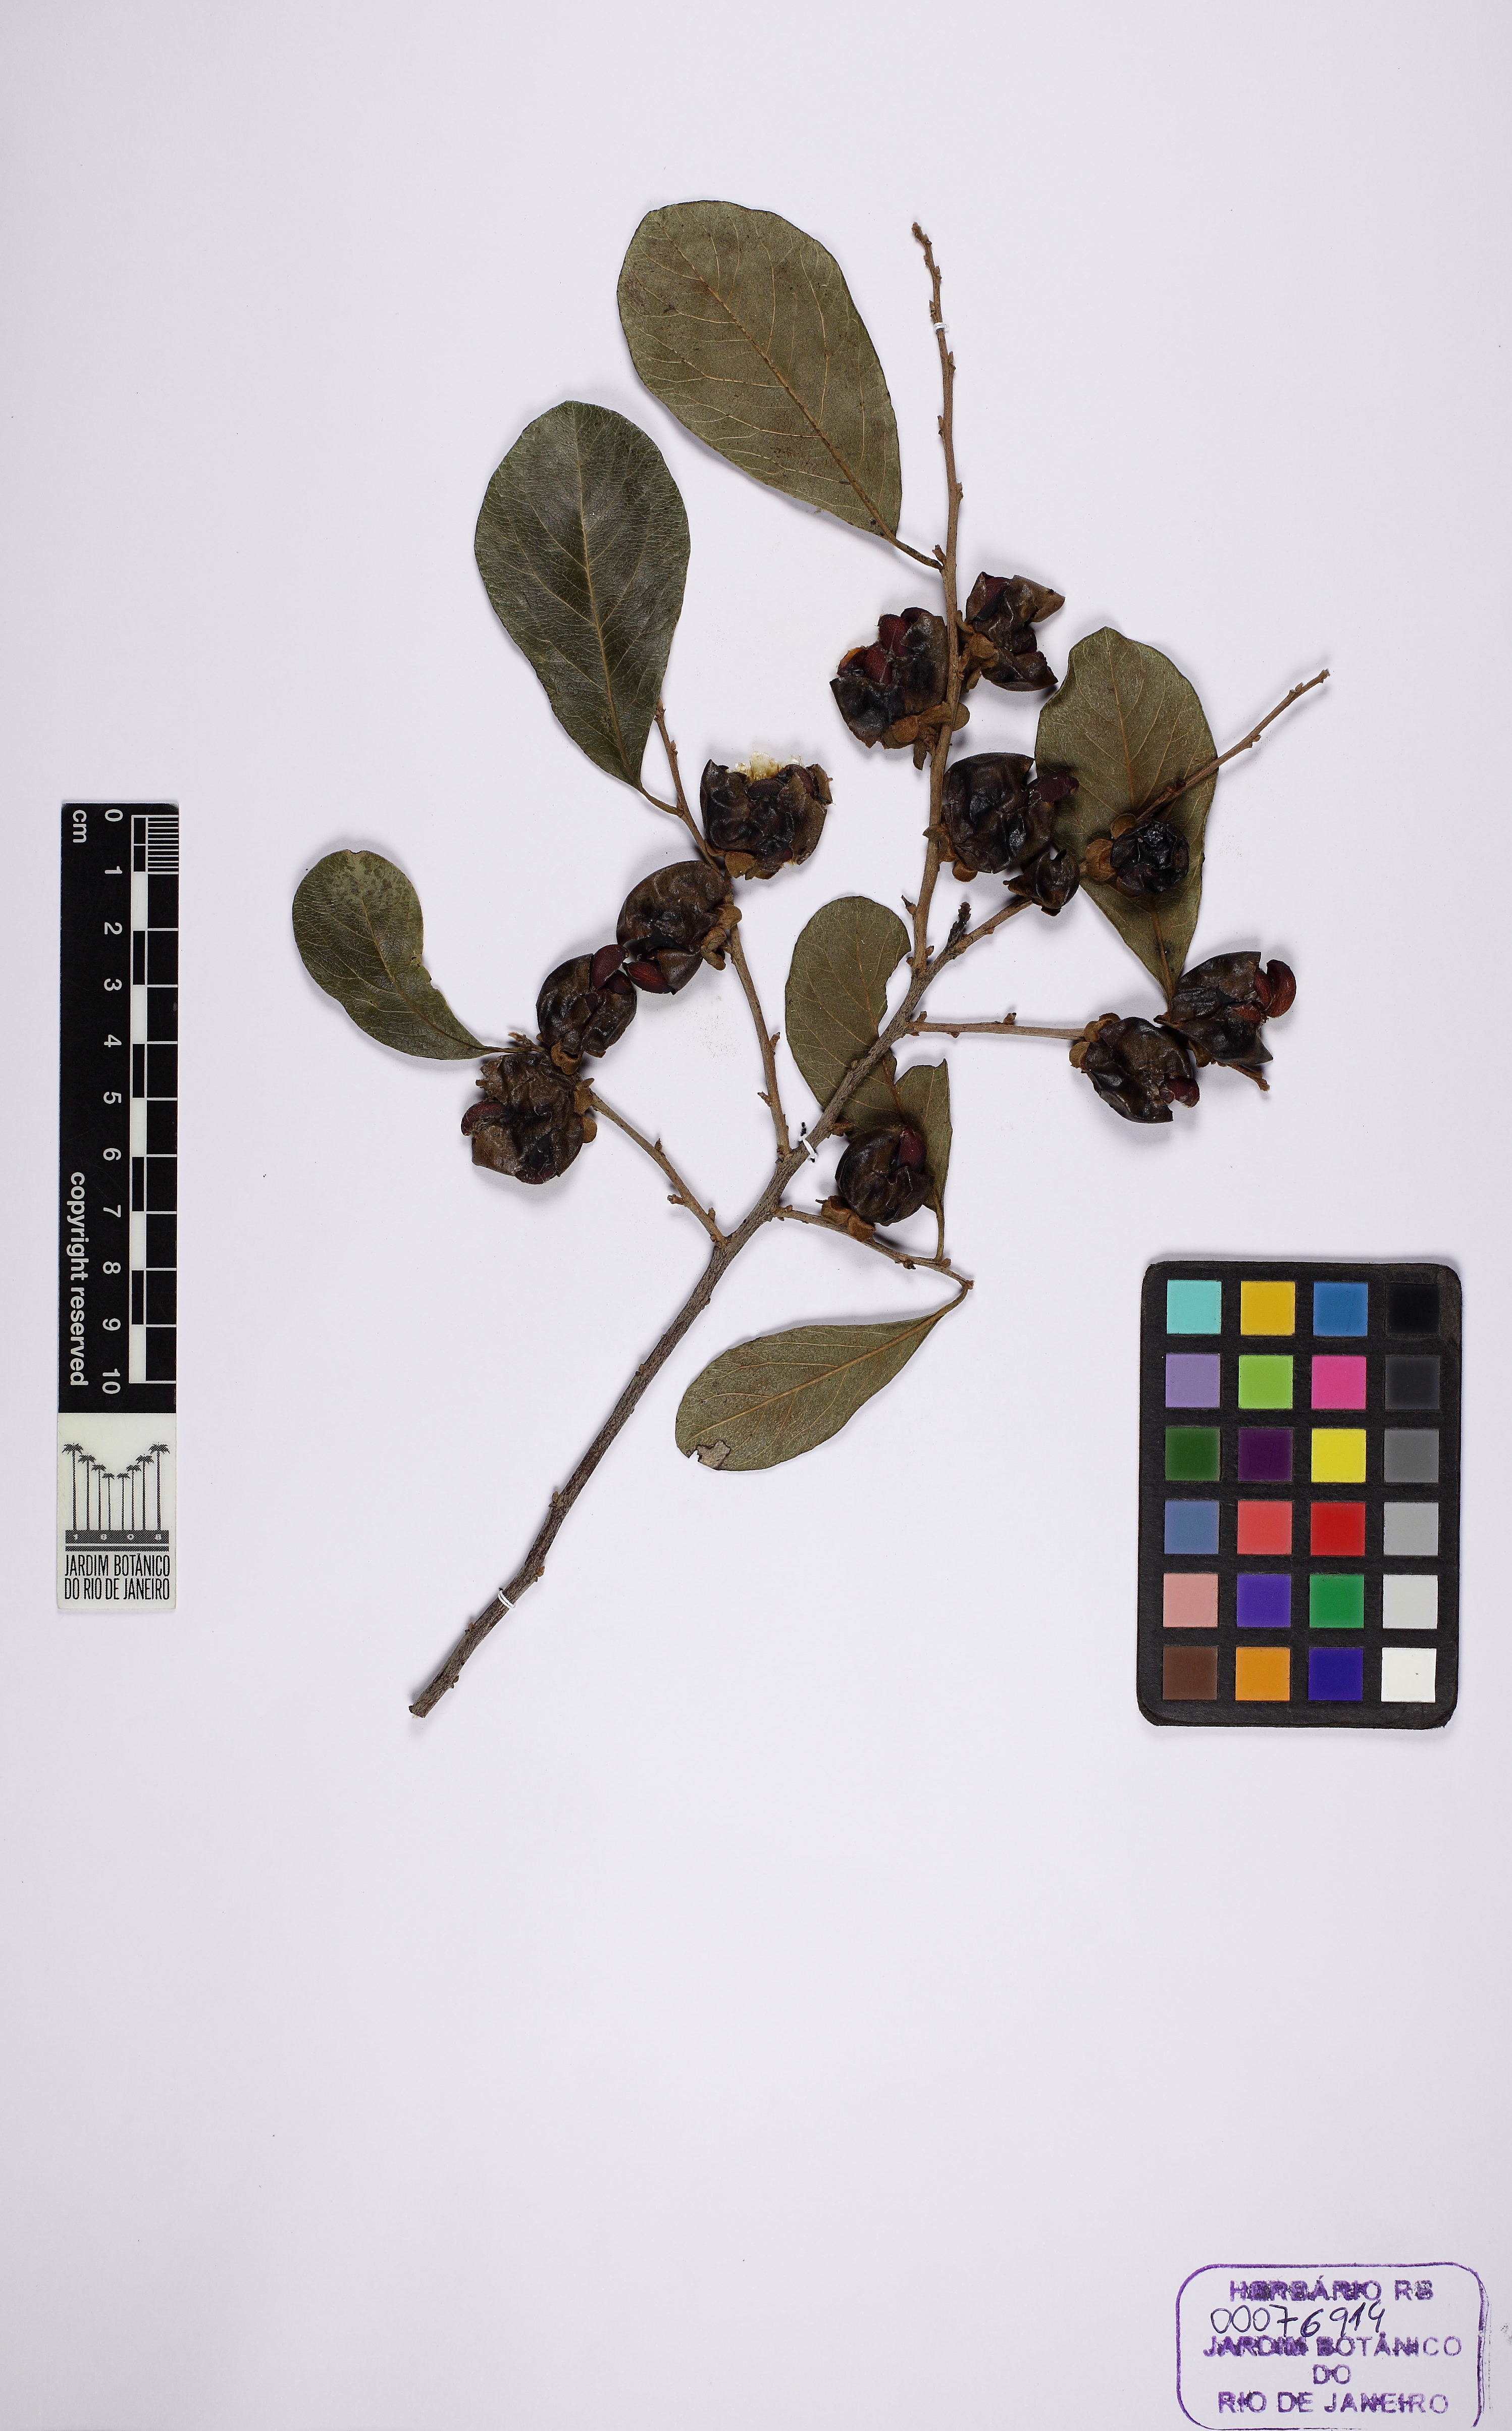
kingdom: Plantae
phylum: Tracheophyta
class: Magnoliopsida
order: Ericales
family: Ebenaceae
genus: Diospyros
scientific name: Diospyros inconstans
